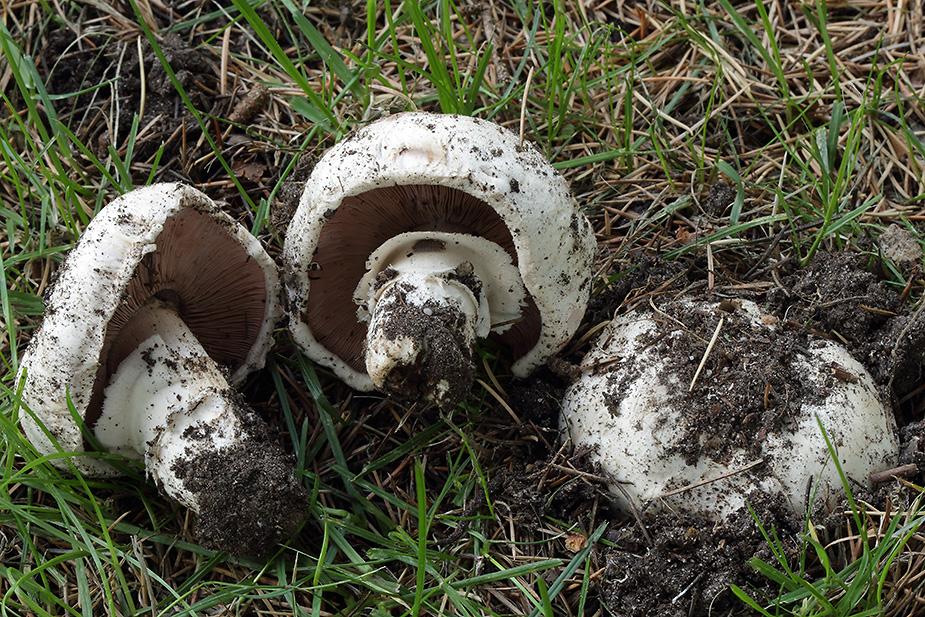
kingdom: Fungi
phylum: Basidiomycota
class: Agaricomycetes
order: Agaricales
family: Agaricaceae
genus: Agaricus
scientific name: Agaricus bitorquis
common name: vej-champignon
